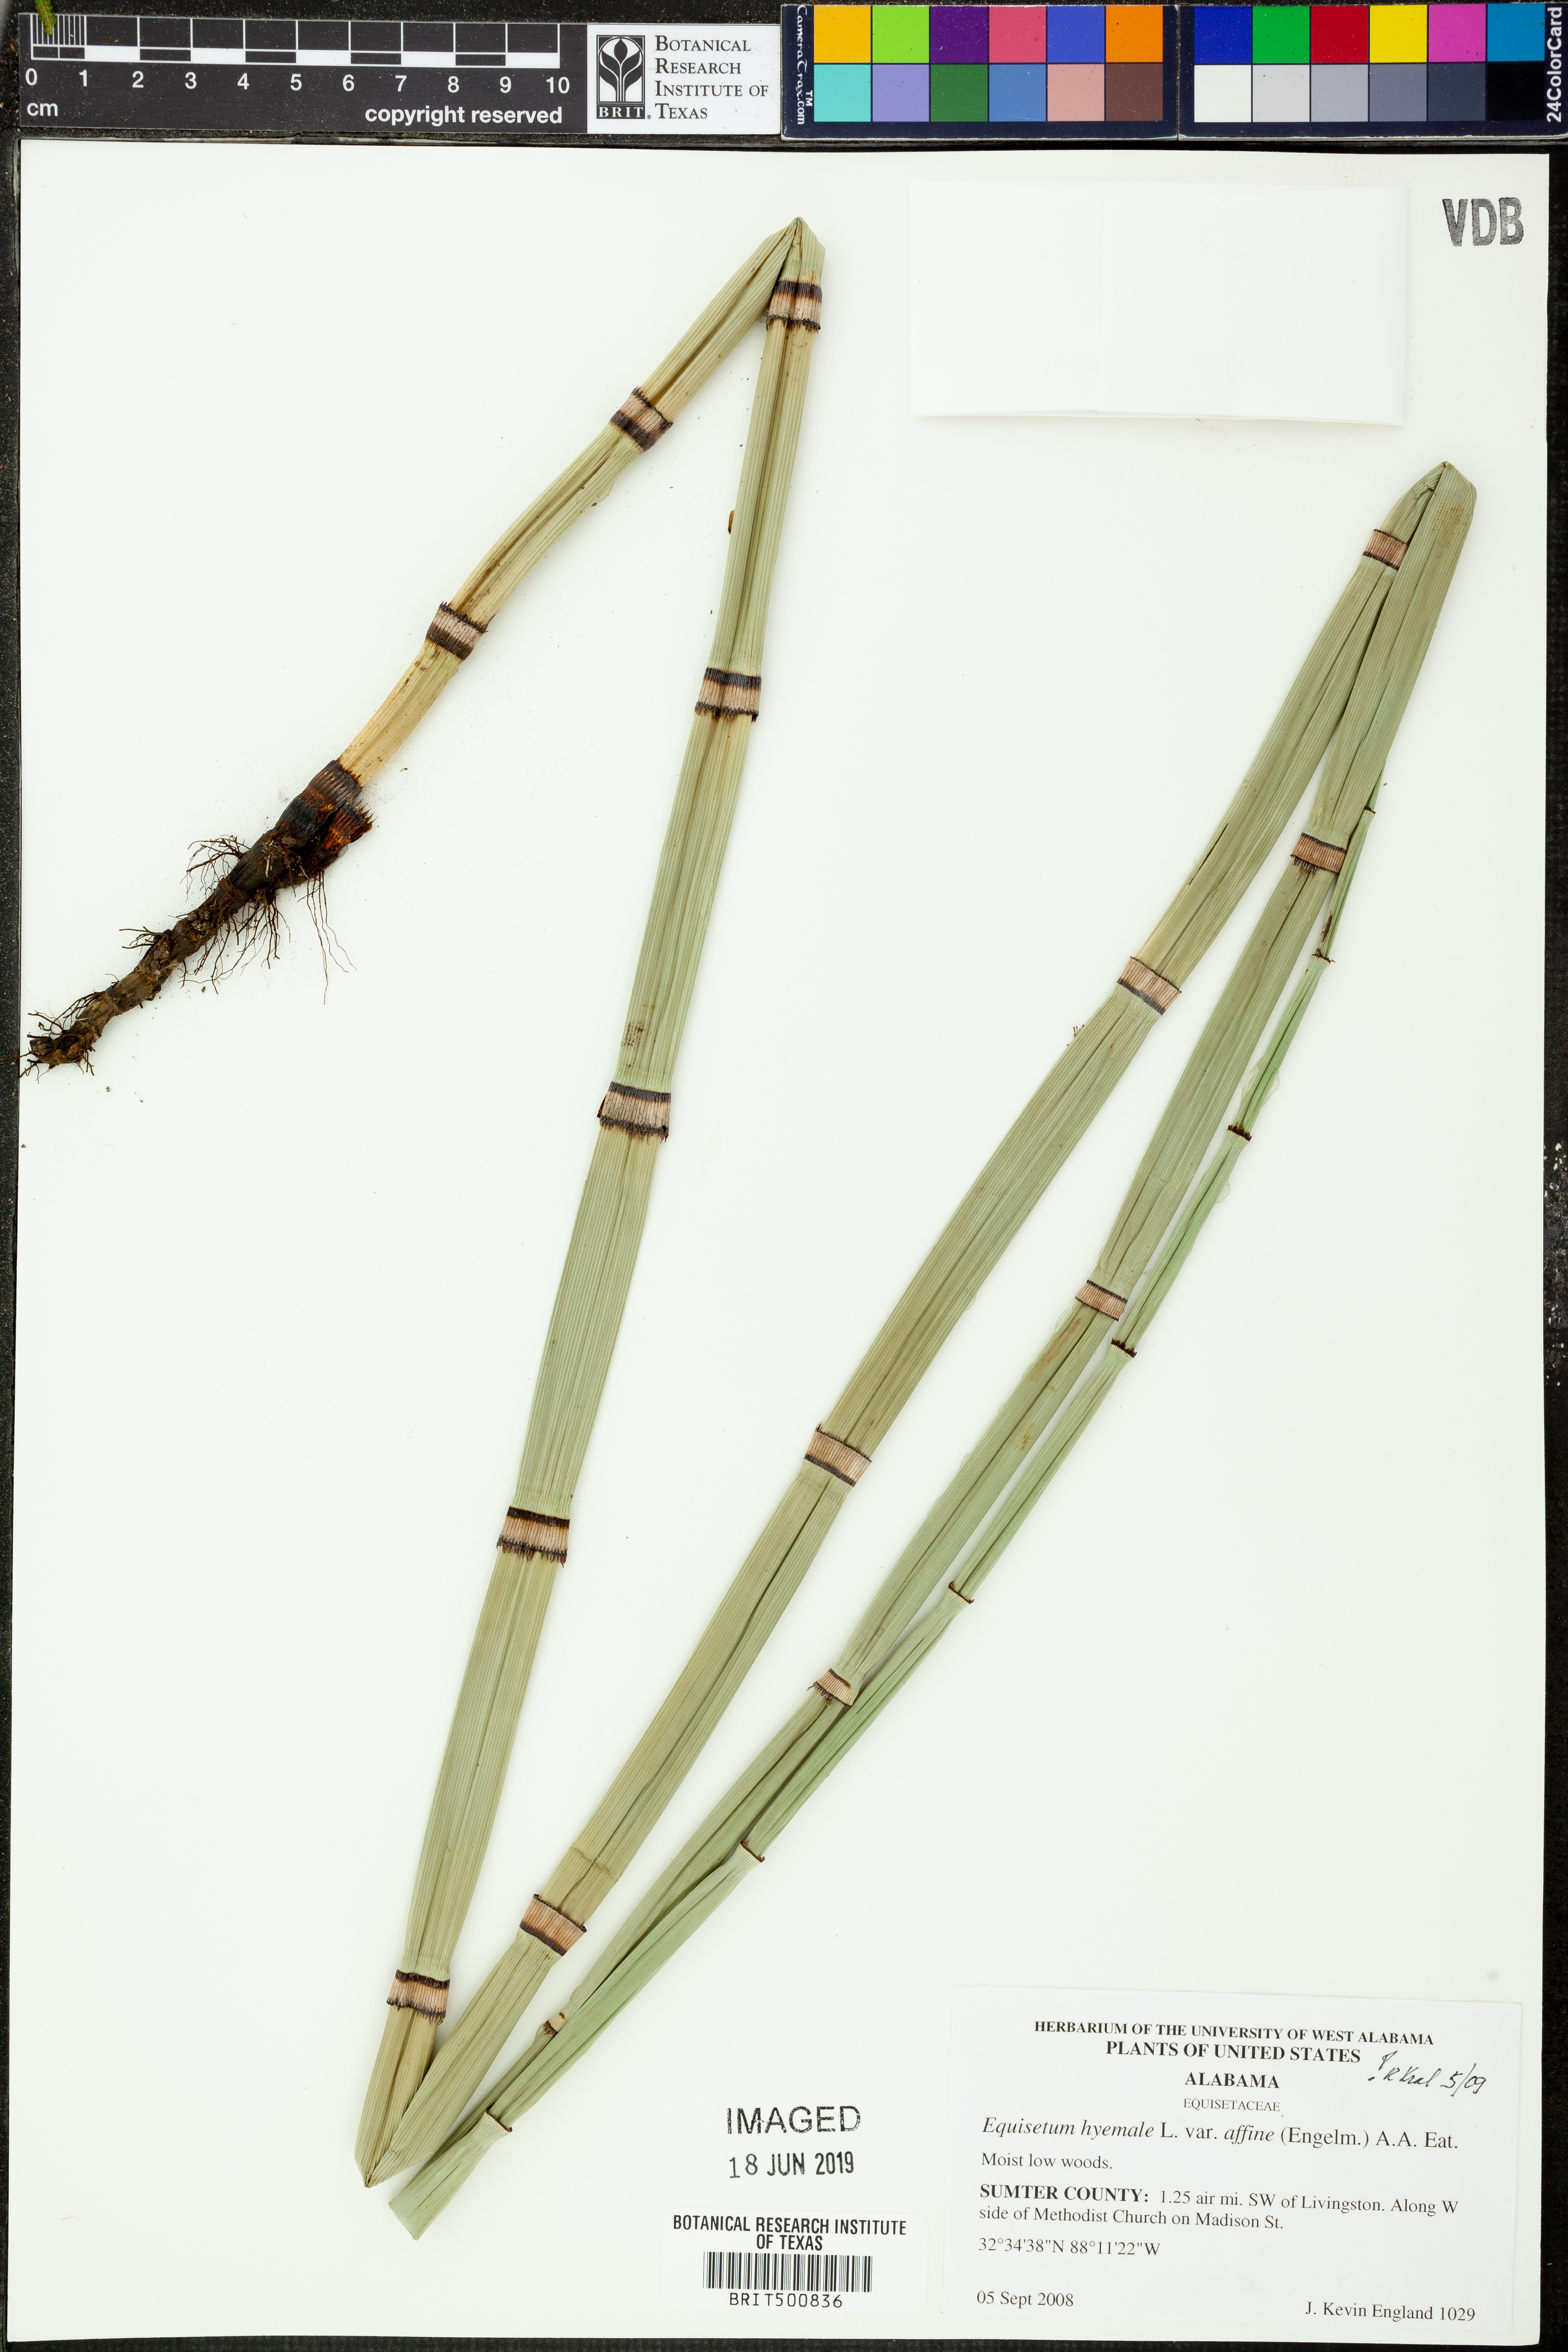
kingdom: Plantae
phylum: Tracheophyta
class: Polypodiopsida
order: Equisetales
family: Equisetaceae
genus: Equisetum
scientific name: Equisetum praealtum
